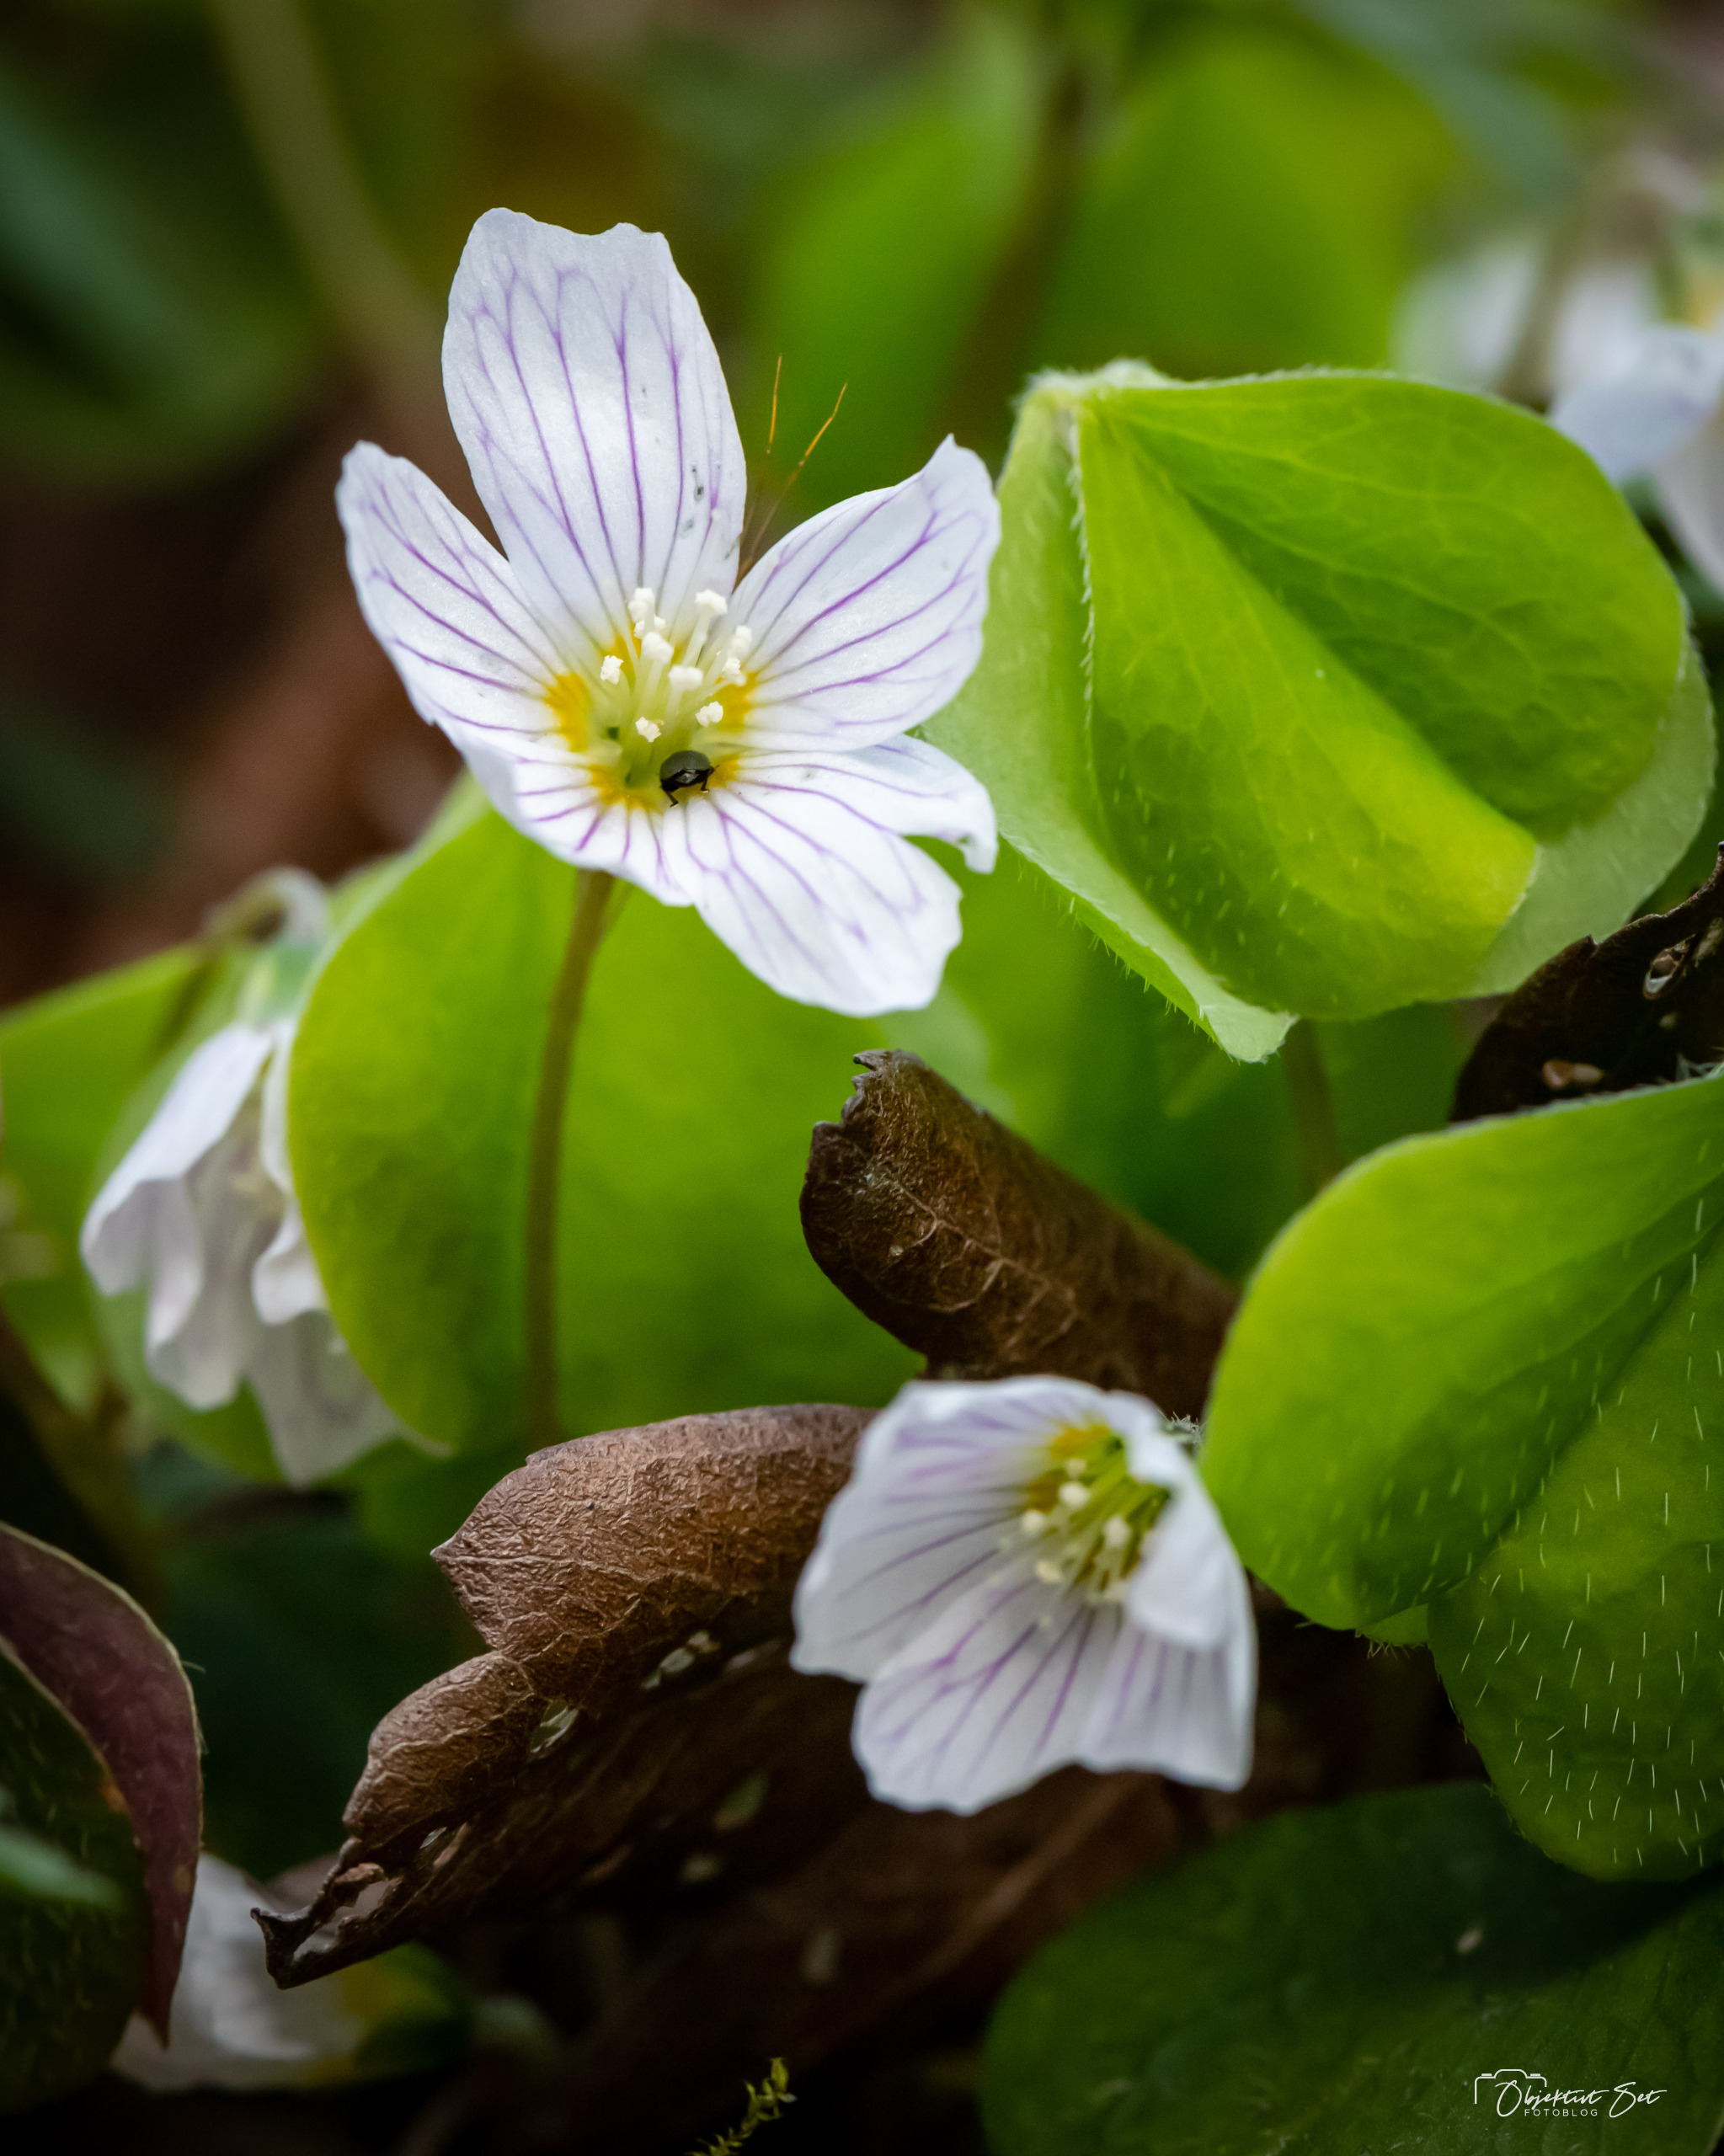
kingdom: Plantae
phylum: Tracheophyta
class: Magnoliopsida
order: Oxalidales
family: Oxalidaceae
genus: Oxalis
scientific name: Oxalis acetosella
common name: Skovsyre
